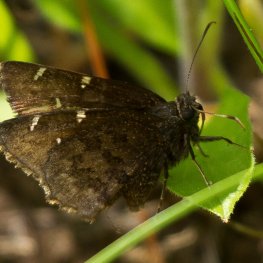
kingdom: Animalia
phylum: Arthropoda
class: Insecta
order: Lepidoptera
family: Hesperiidae
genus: Autochton
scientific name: Autochton
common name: Northern Cloudywing
